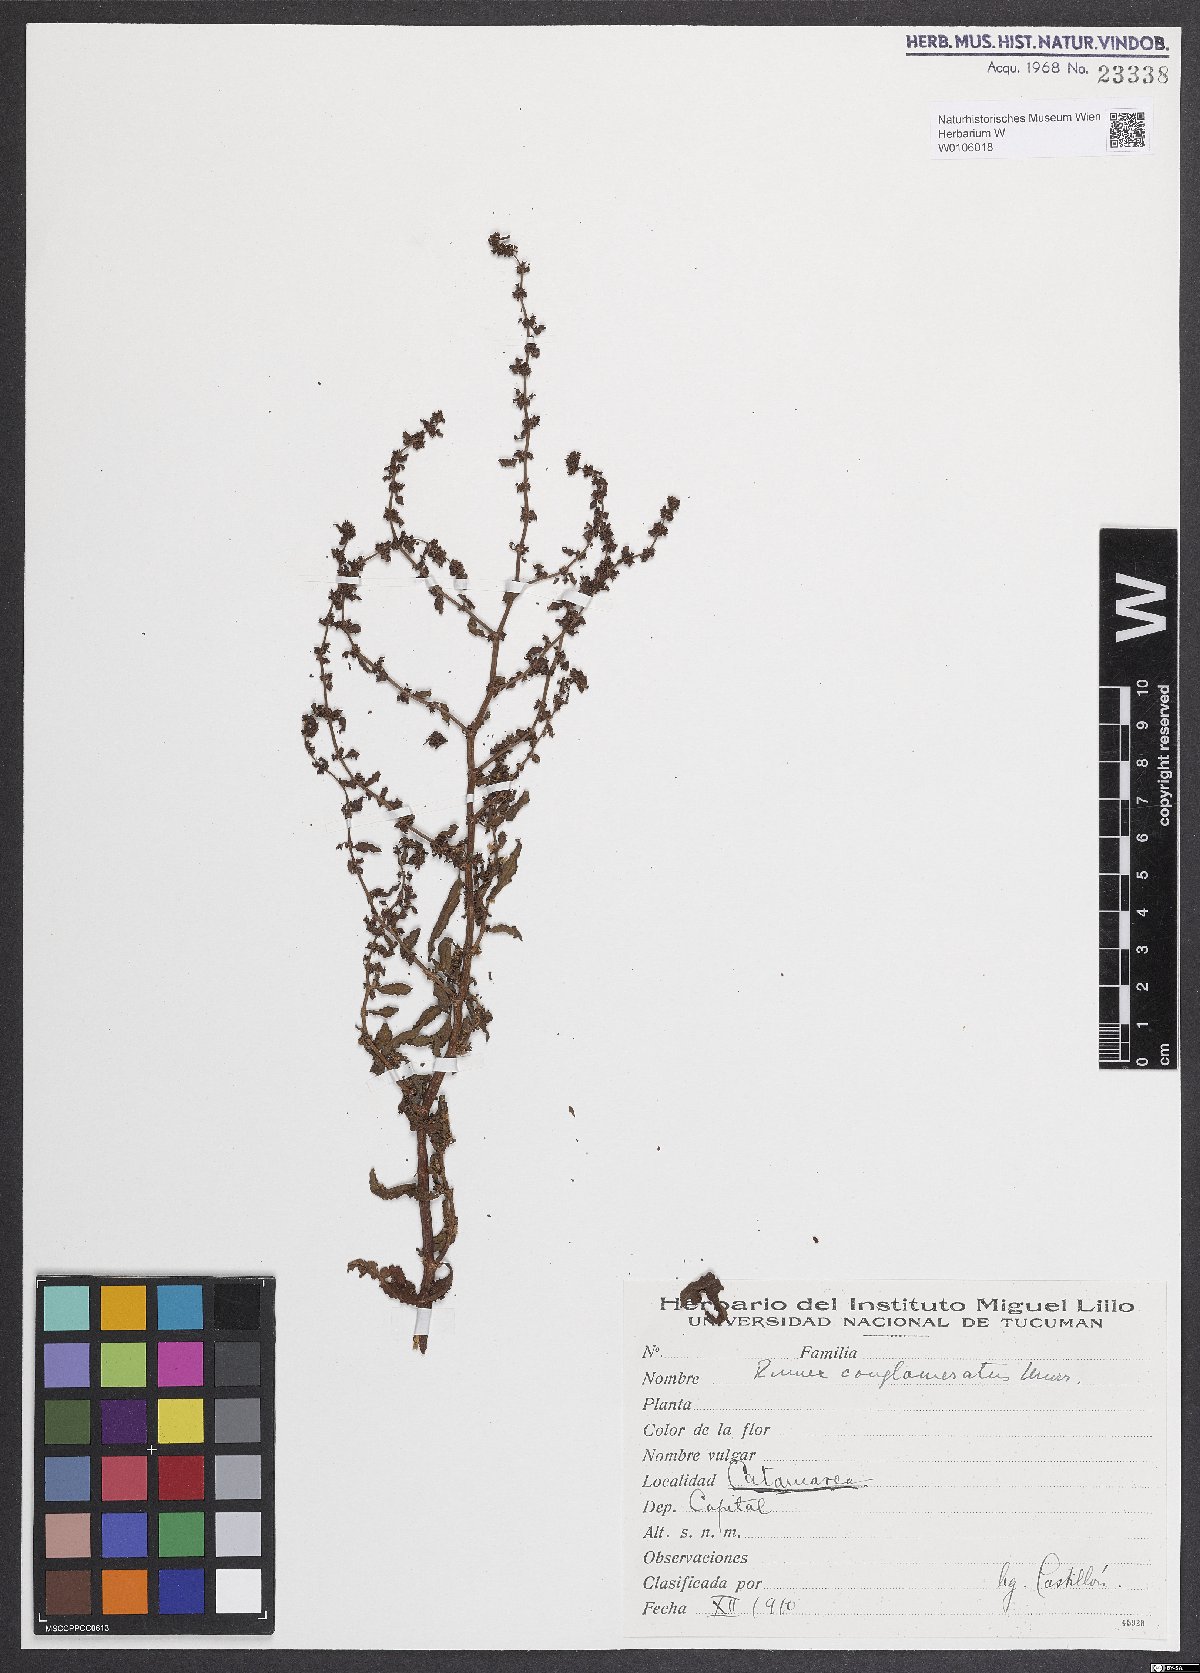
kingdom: Plantae
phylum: Tracheophyta
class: Magnoliopsida
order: Caryophyllales
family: Polygonaceae
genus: Rumex
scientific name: Rumex conglomeratus
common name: Clustered dock
